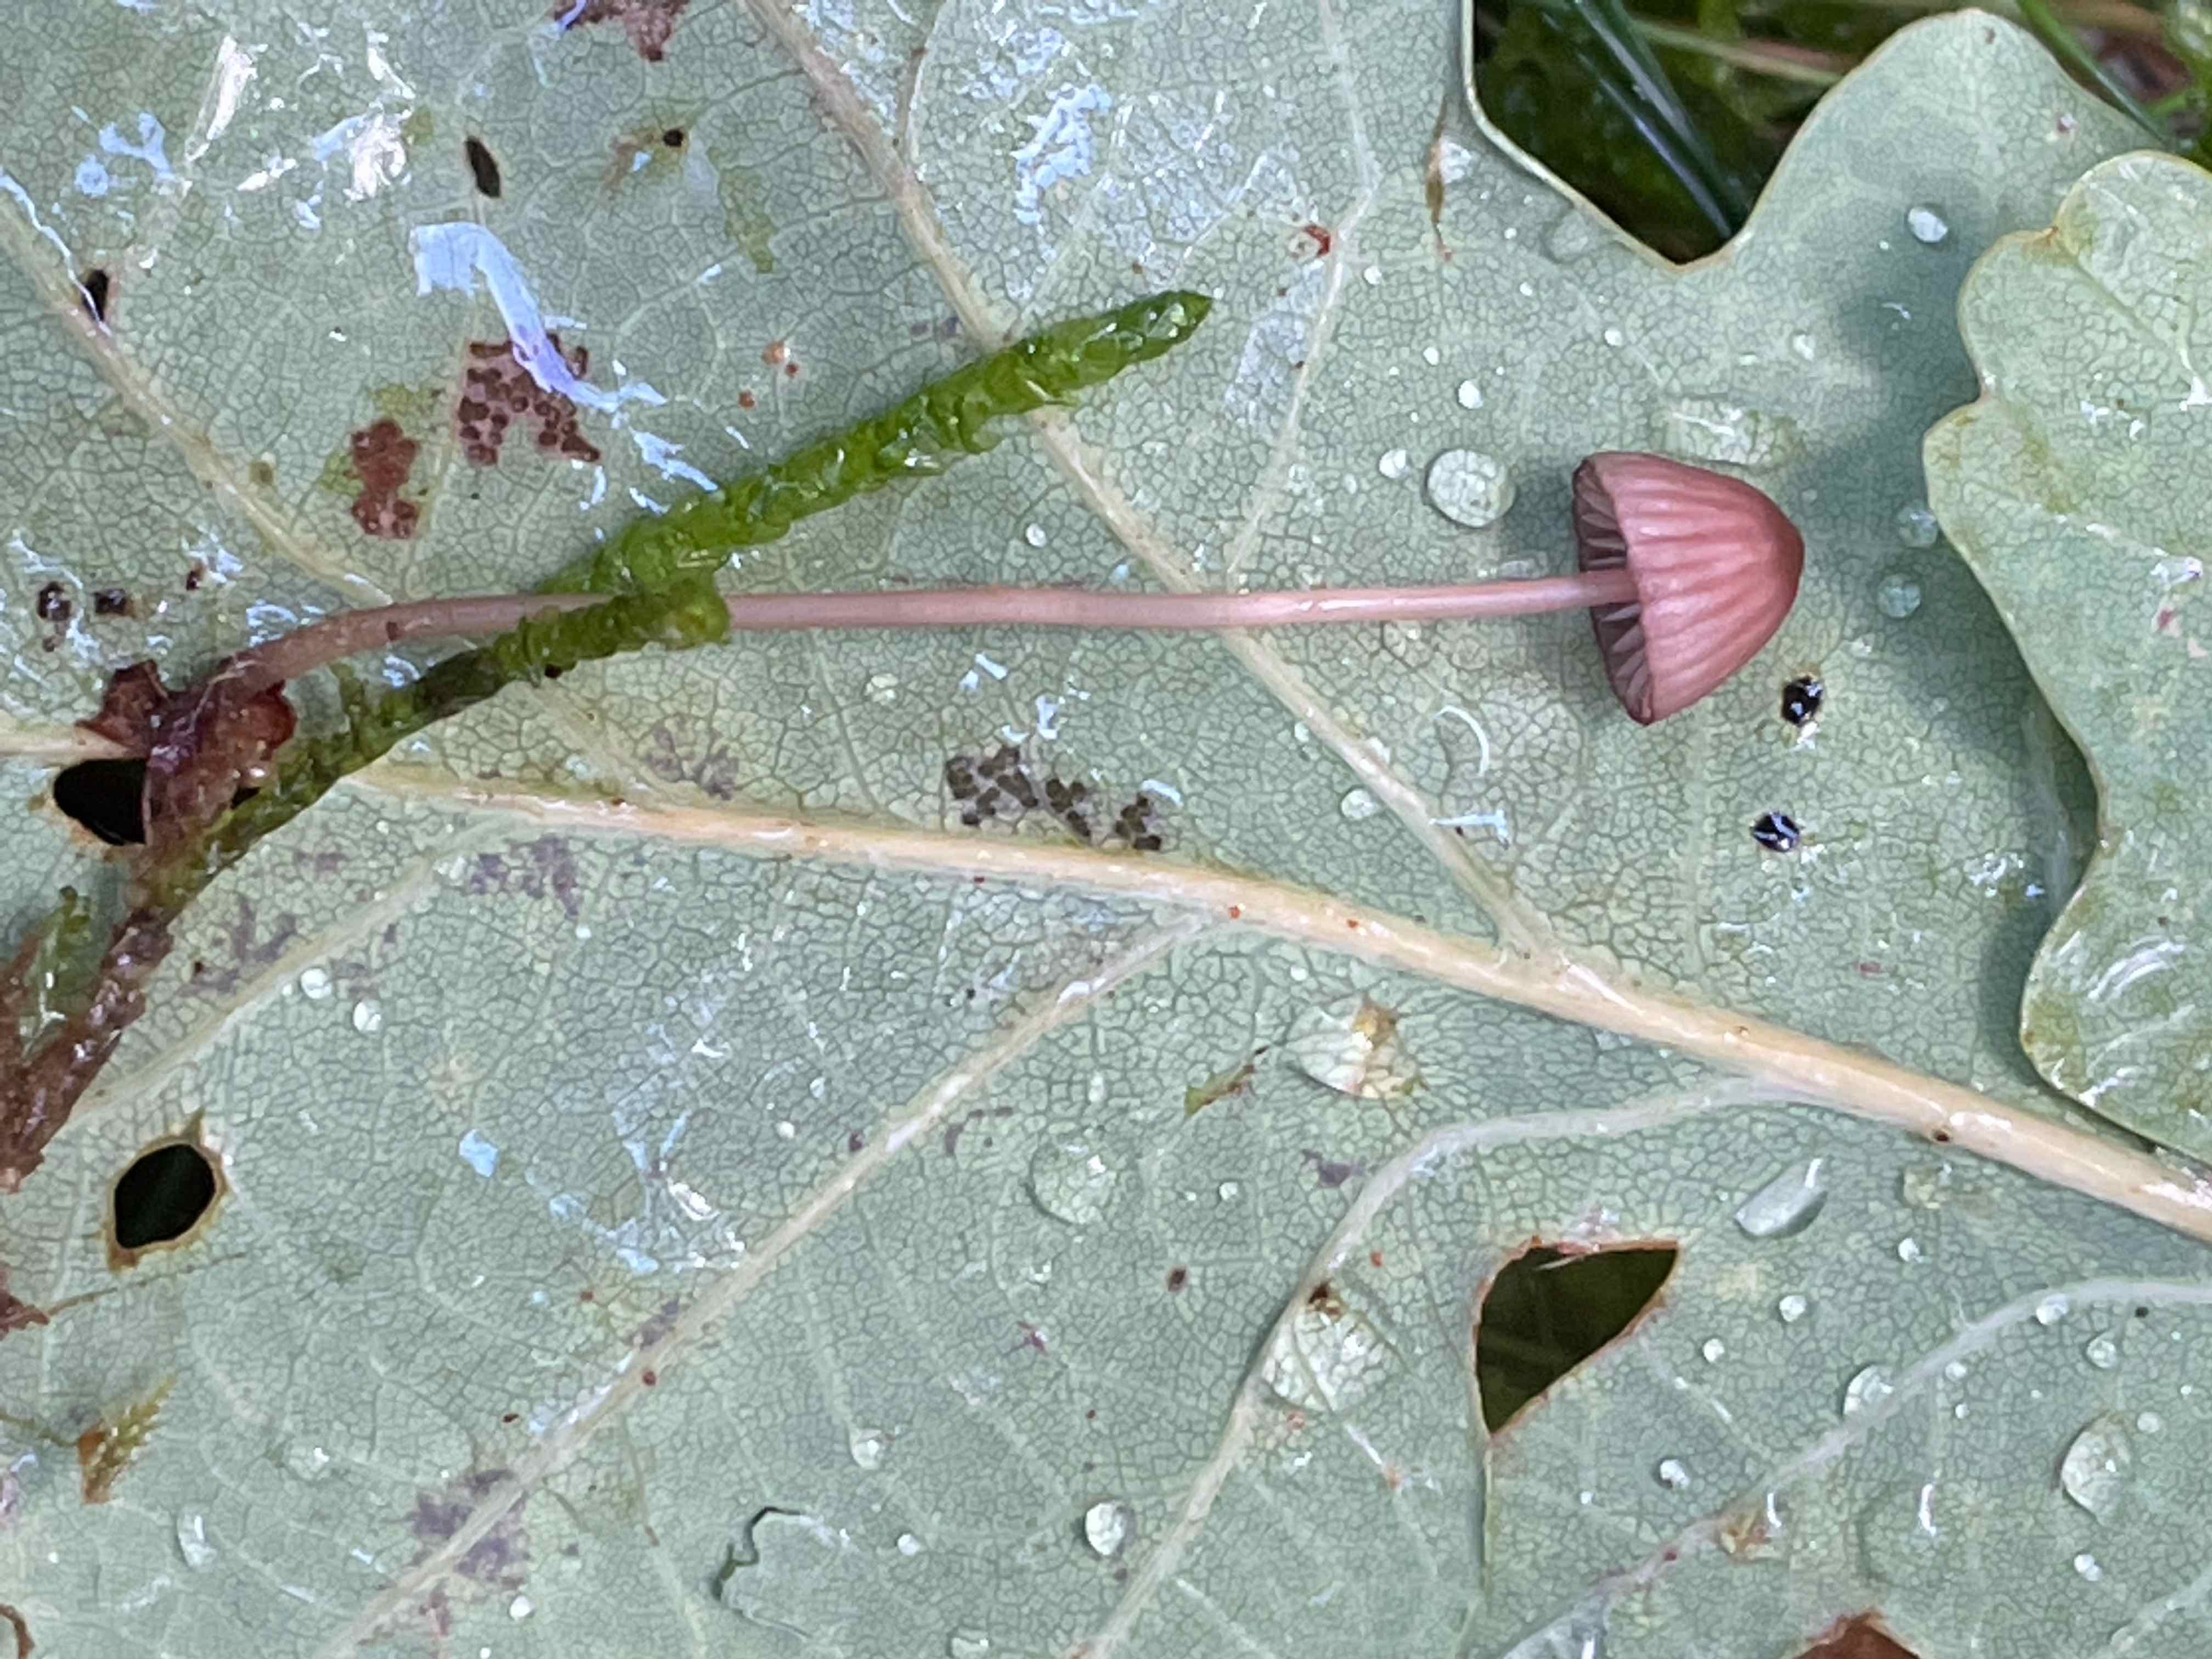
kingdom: Fungi
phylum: Basidiomycota
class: Agaricomycetes
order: Agaricales
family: Mycenaceae
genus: Mycena
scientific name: Mycena sanguinolenta
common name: rødmælket huesvamp
